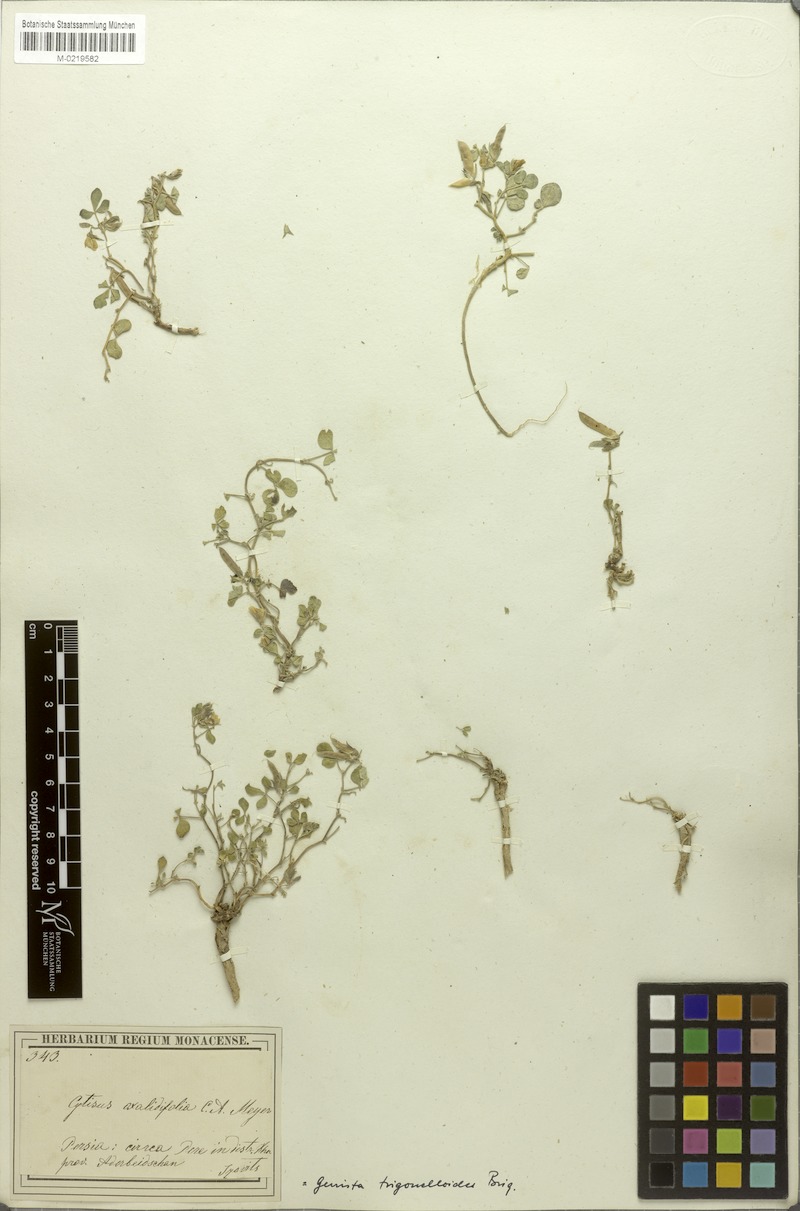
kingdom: Plantae
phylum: Tracheophyta
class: Magnoliopsida
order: Fabales
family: Fabaceae
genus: Argyrolobium
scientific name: Argyrolobium roseum
